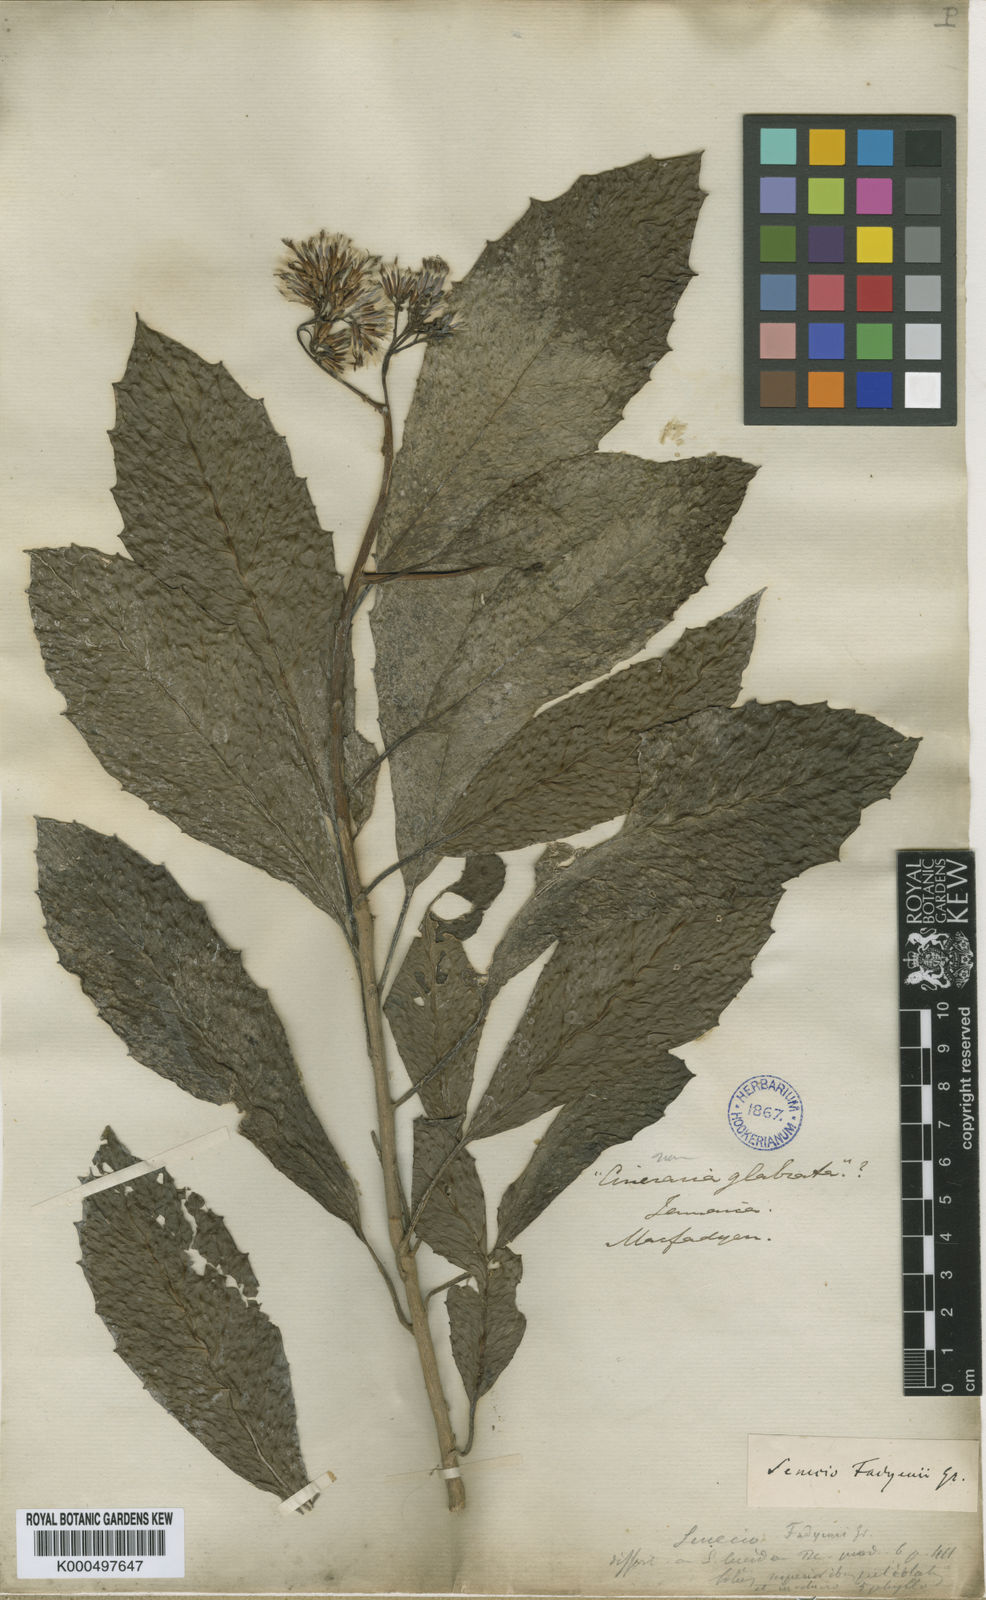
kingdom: Plantae
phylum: Tracheophyta
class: Magnoliopsida
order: Asterales
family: Asteraceae
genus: Odontocline
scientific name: Odontocline fadyenii
